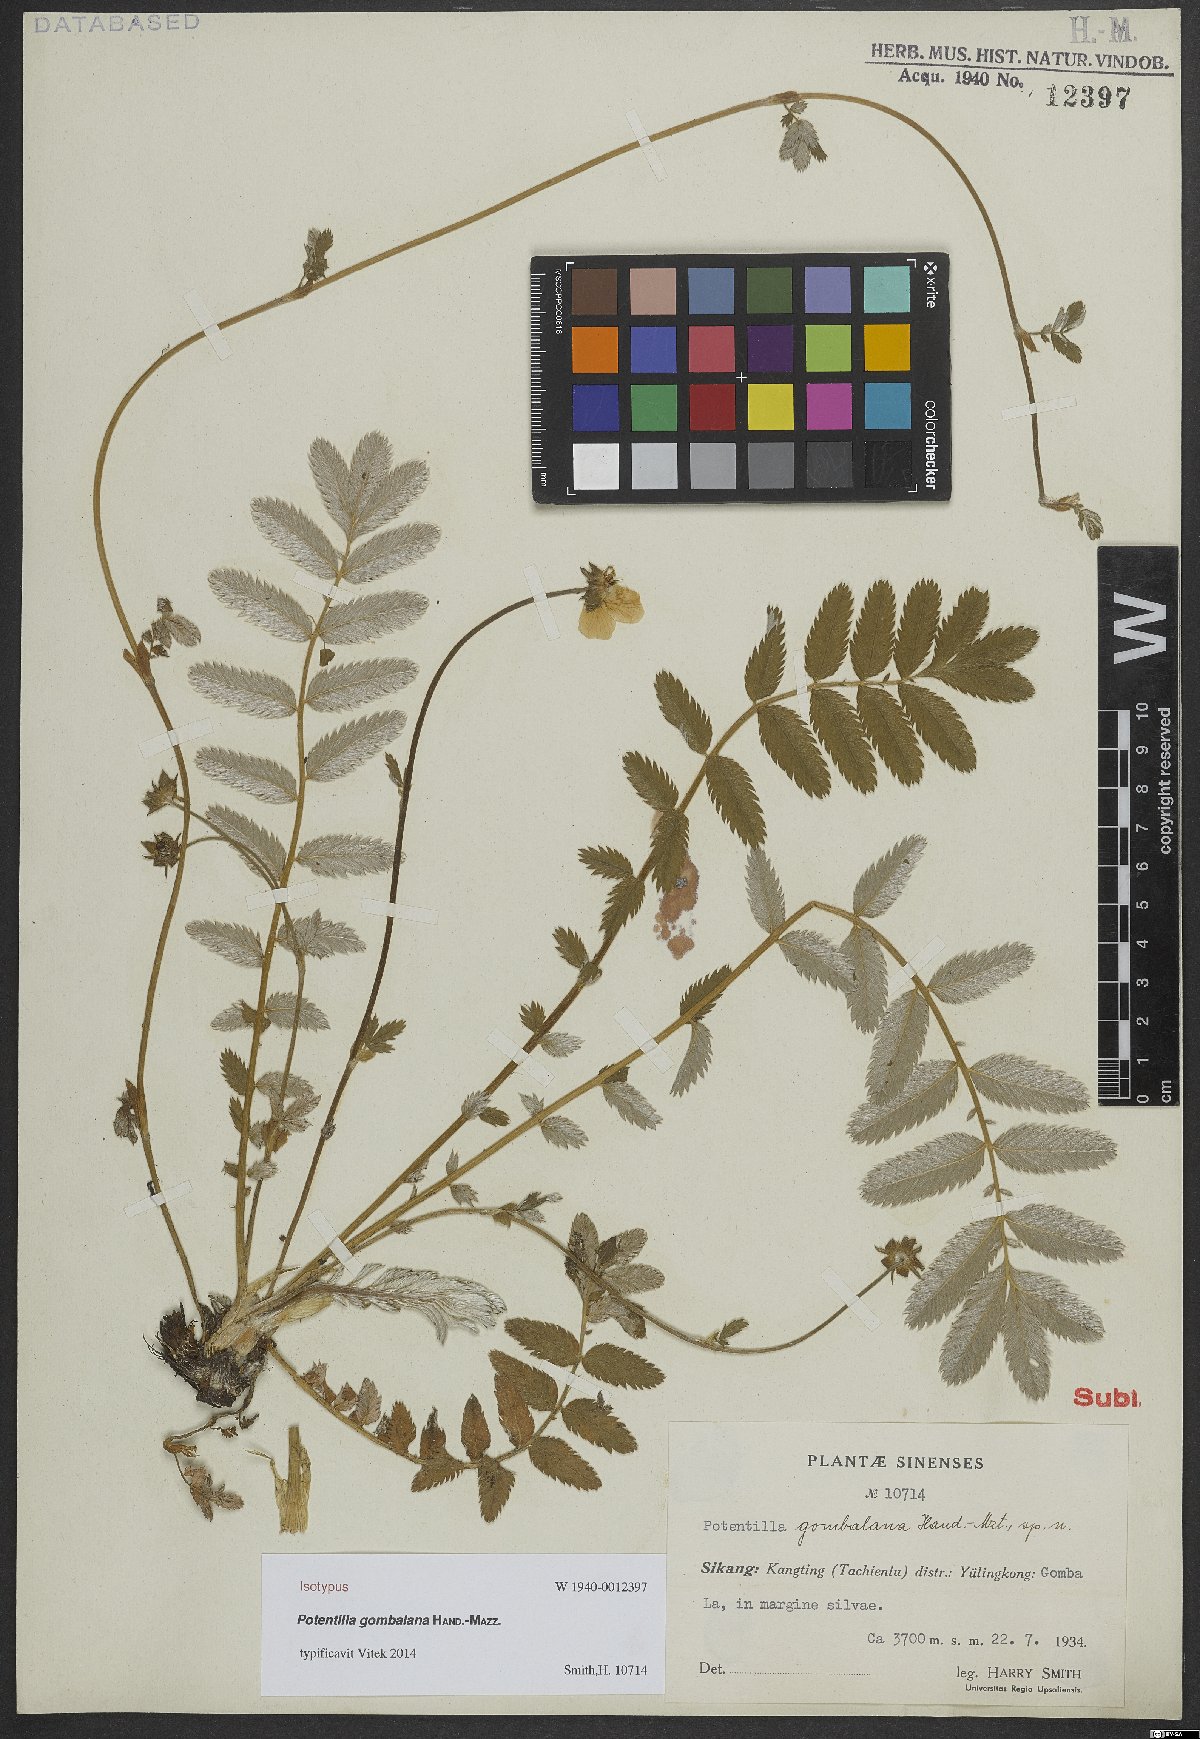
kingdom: Plantae
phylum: Tracheophyta
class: Magnoliopsida
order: Rosales
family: Rosaceae
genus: Argentina
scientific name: Argentina gombalana
